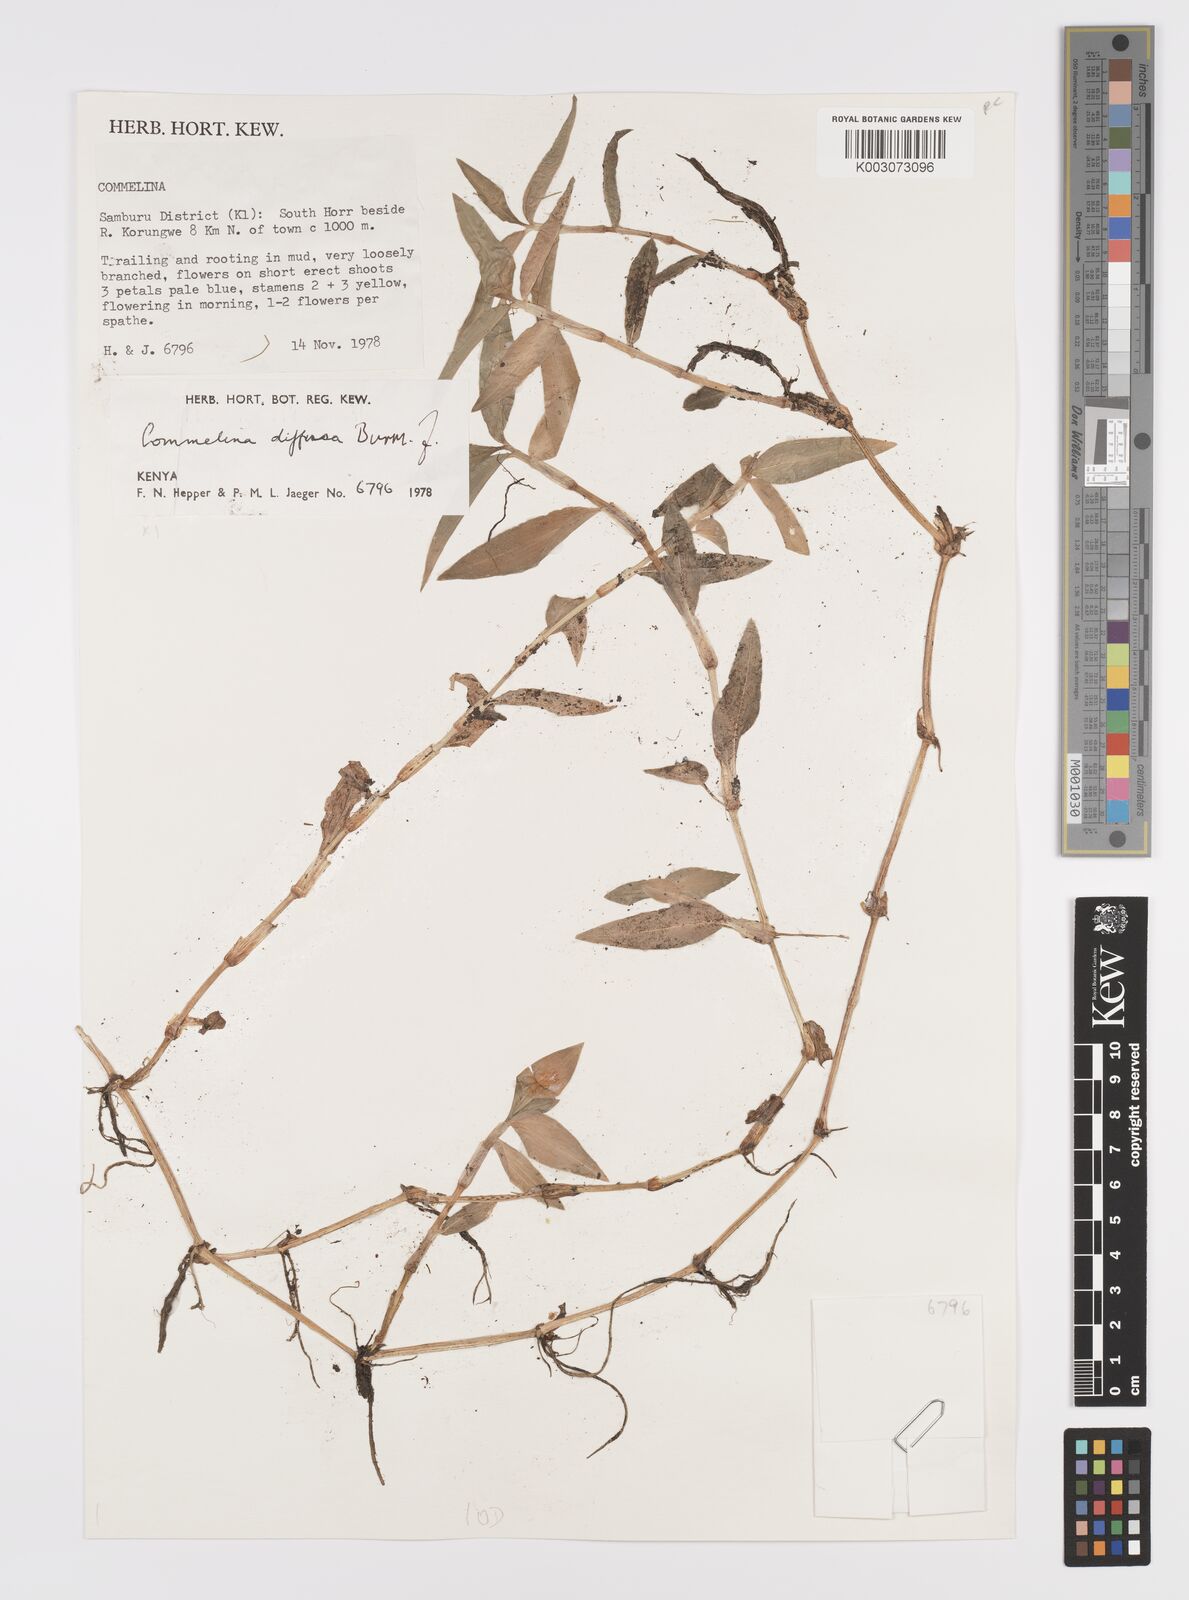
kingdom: Plantae
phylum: Tracheophyta
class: Liliopsida
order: Commelinales
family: Commelinaceae
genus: Commelina
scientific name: Commelina diffusa
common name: Climbing dayflower
